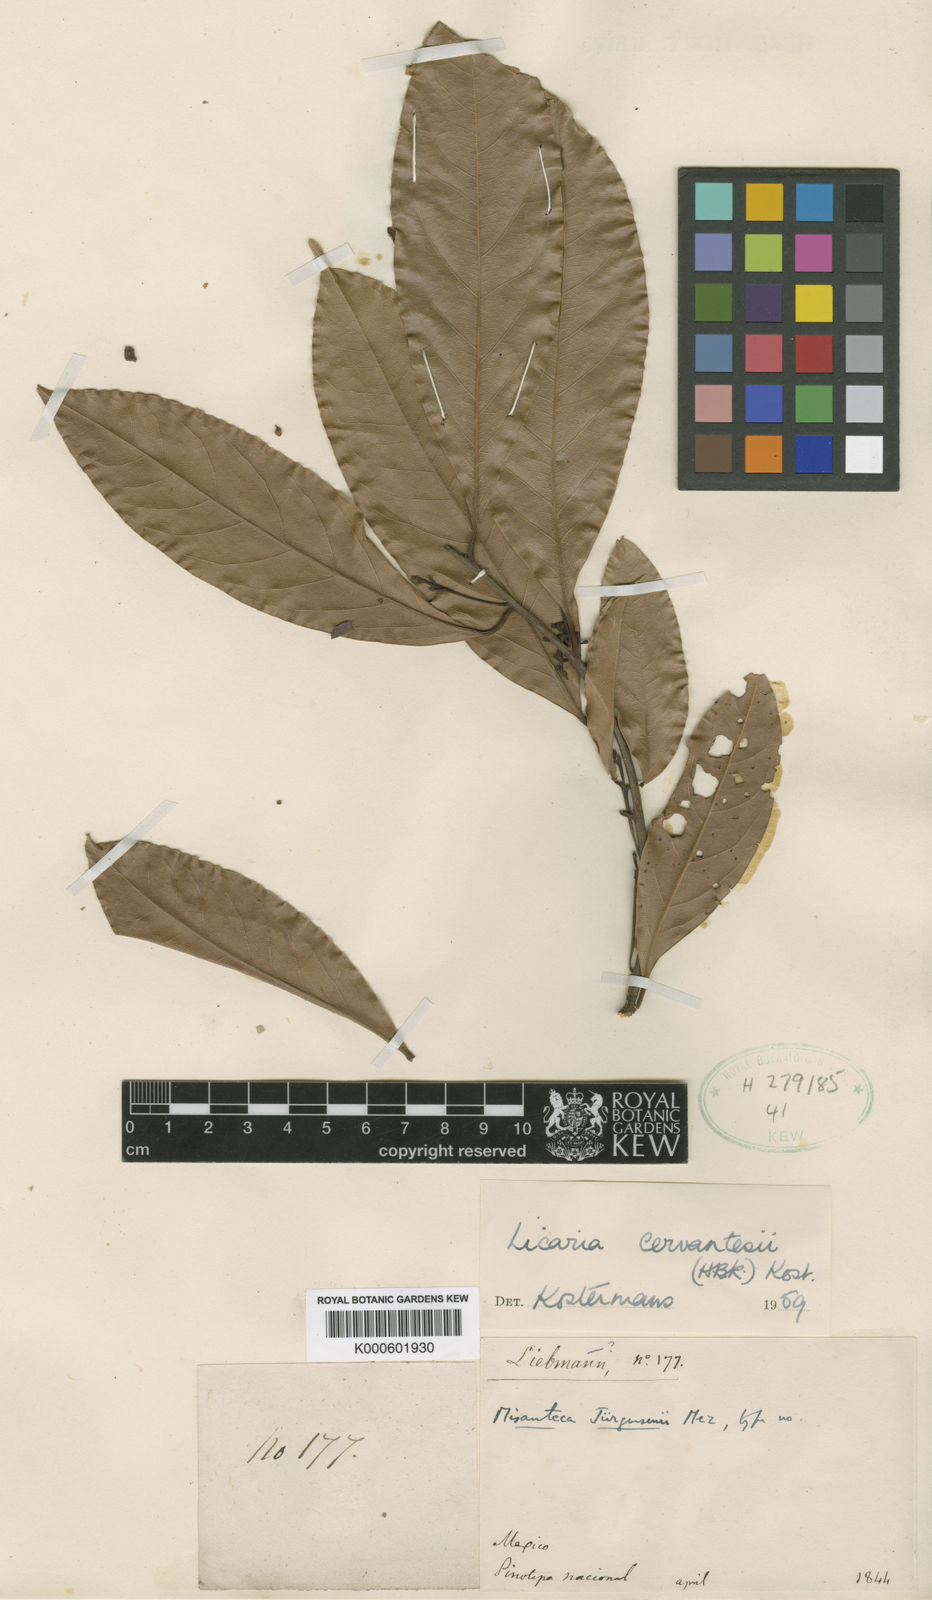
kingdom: Plantae
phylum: Tracheophyta
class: Magnoliopsida
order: Laurales
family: Lauraceae
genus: Licaria
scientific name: Licaria triandra
